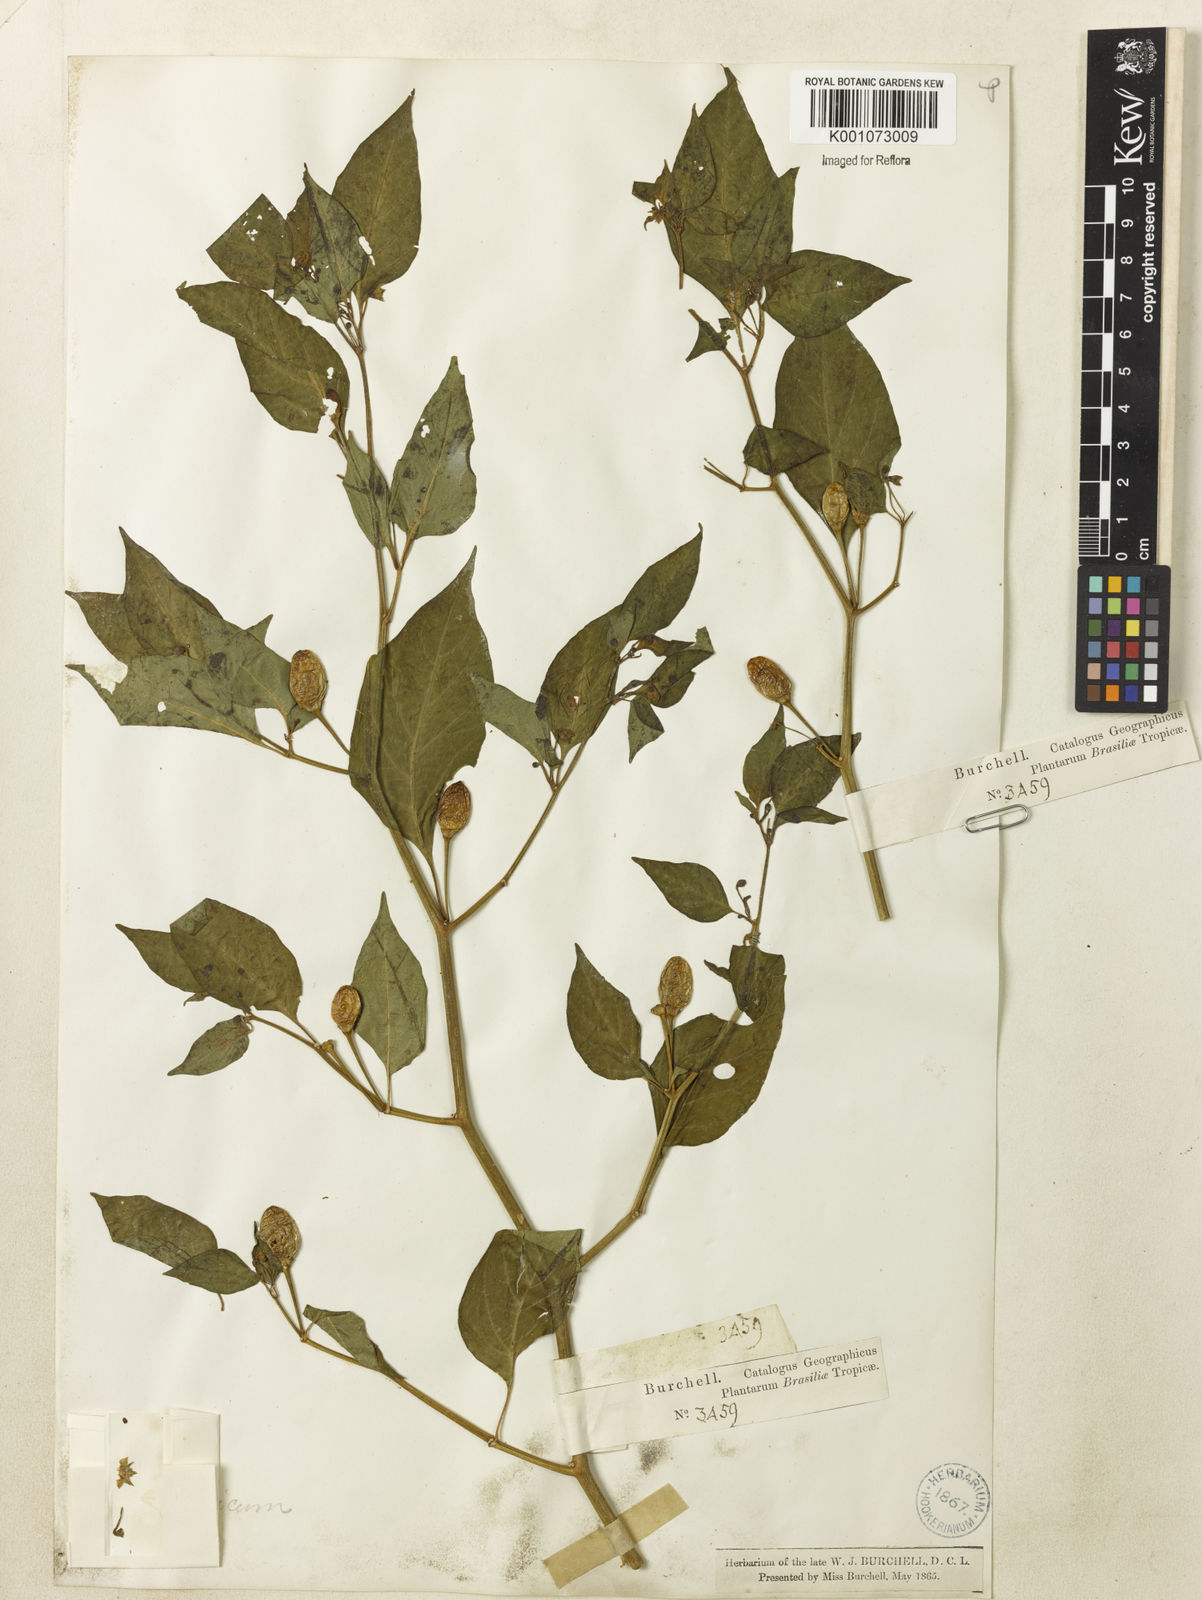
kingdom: Plantae
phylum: Tracheophyta
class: Magnoliopsida
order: Solanales
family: Solanaceae
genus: Capsicum
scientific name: Capsicum frutescens
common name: Bird pepper
